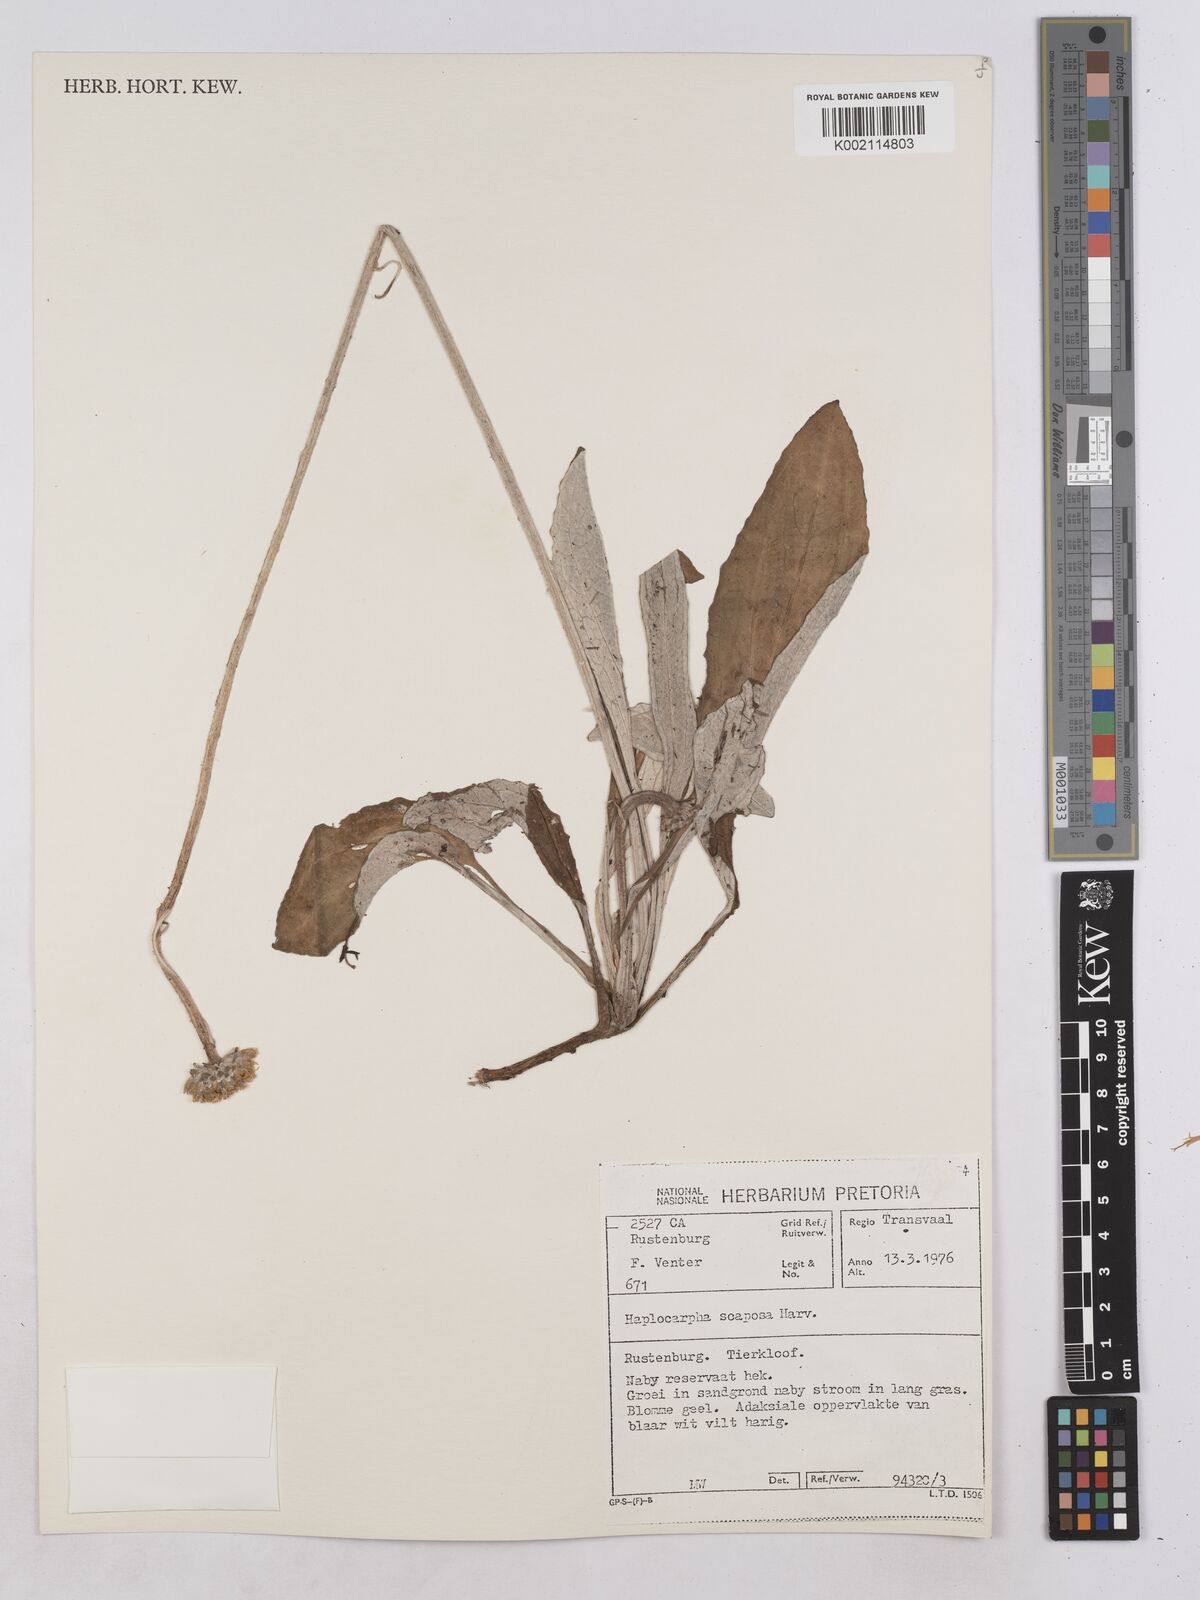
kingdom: Plantae
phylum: Tracheophyta
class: Magnoliopsida
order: Asterales
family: Asteraceae
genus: Haplocarpha
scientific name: Haplocarpha scaposa
